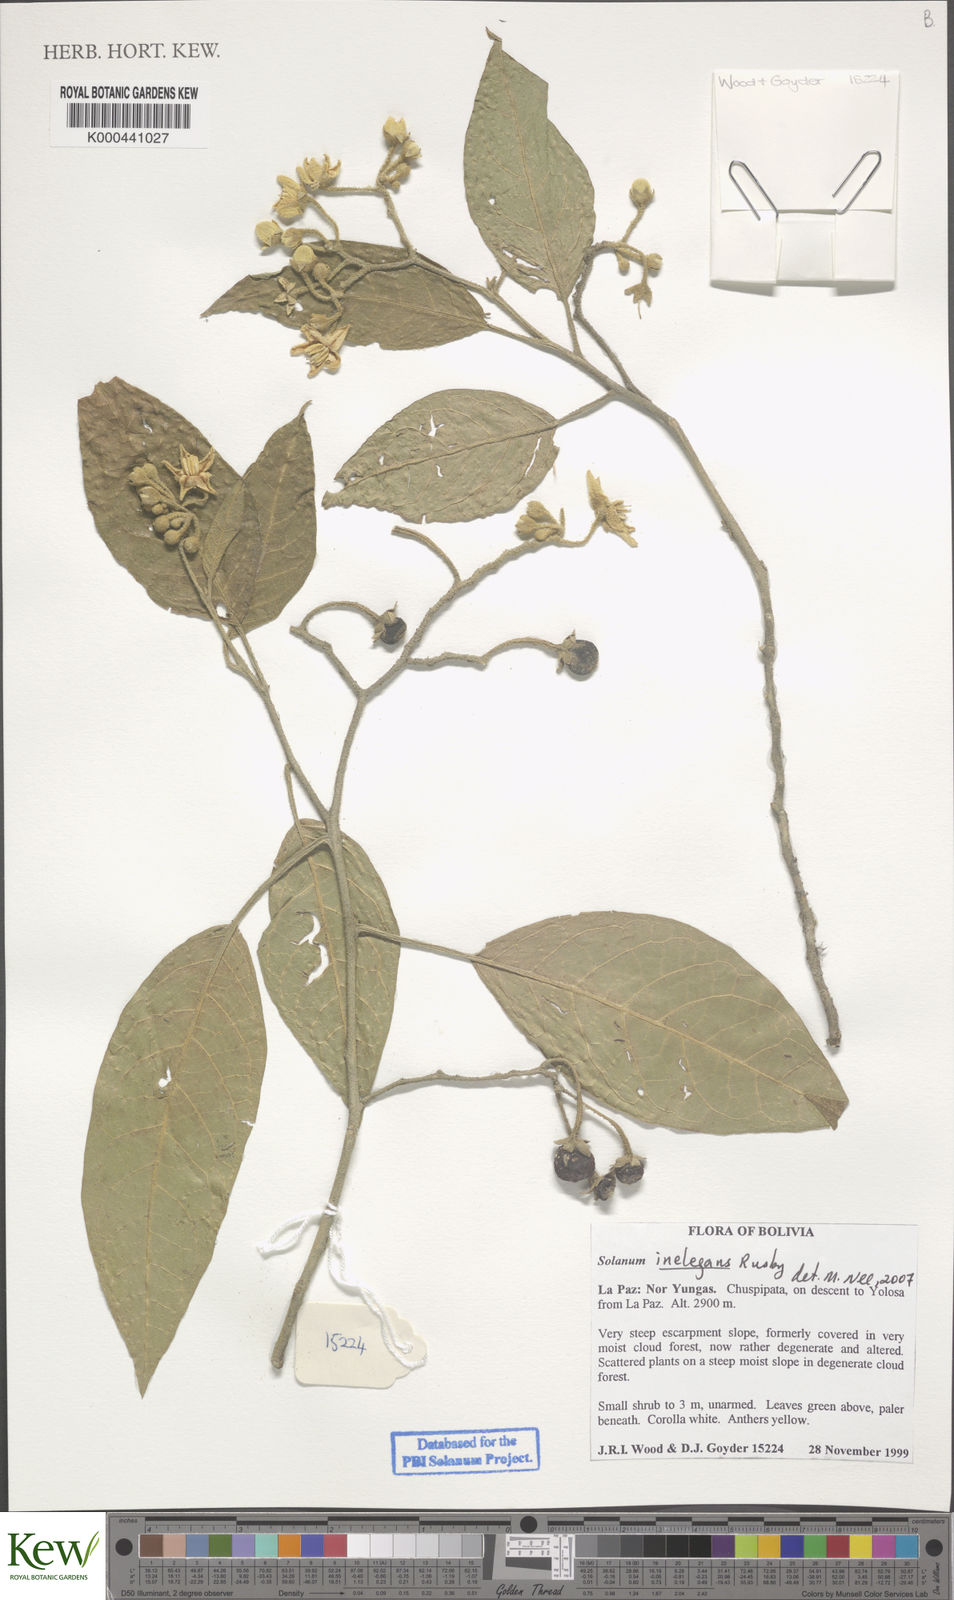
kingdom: Plantae
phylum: Tracheophyta
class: Magnoliopsida
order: Solanales
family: Solanaceae
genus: Solanum
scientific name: Solanum inelegans
